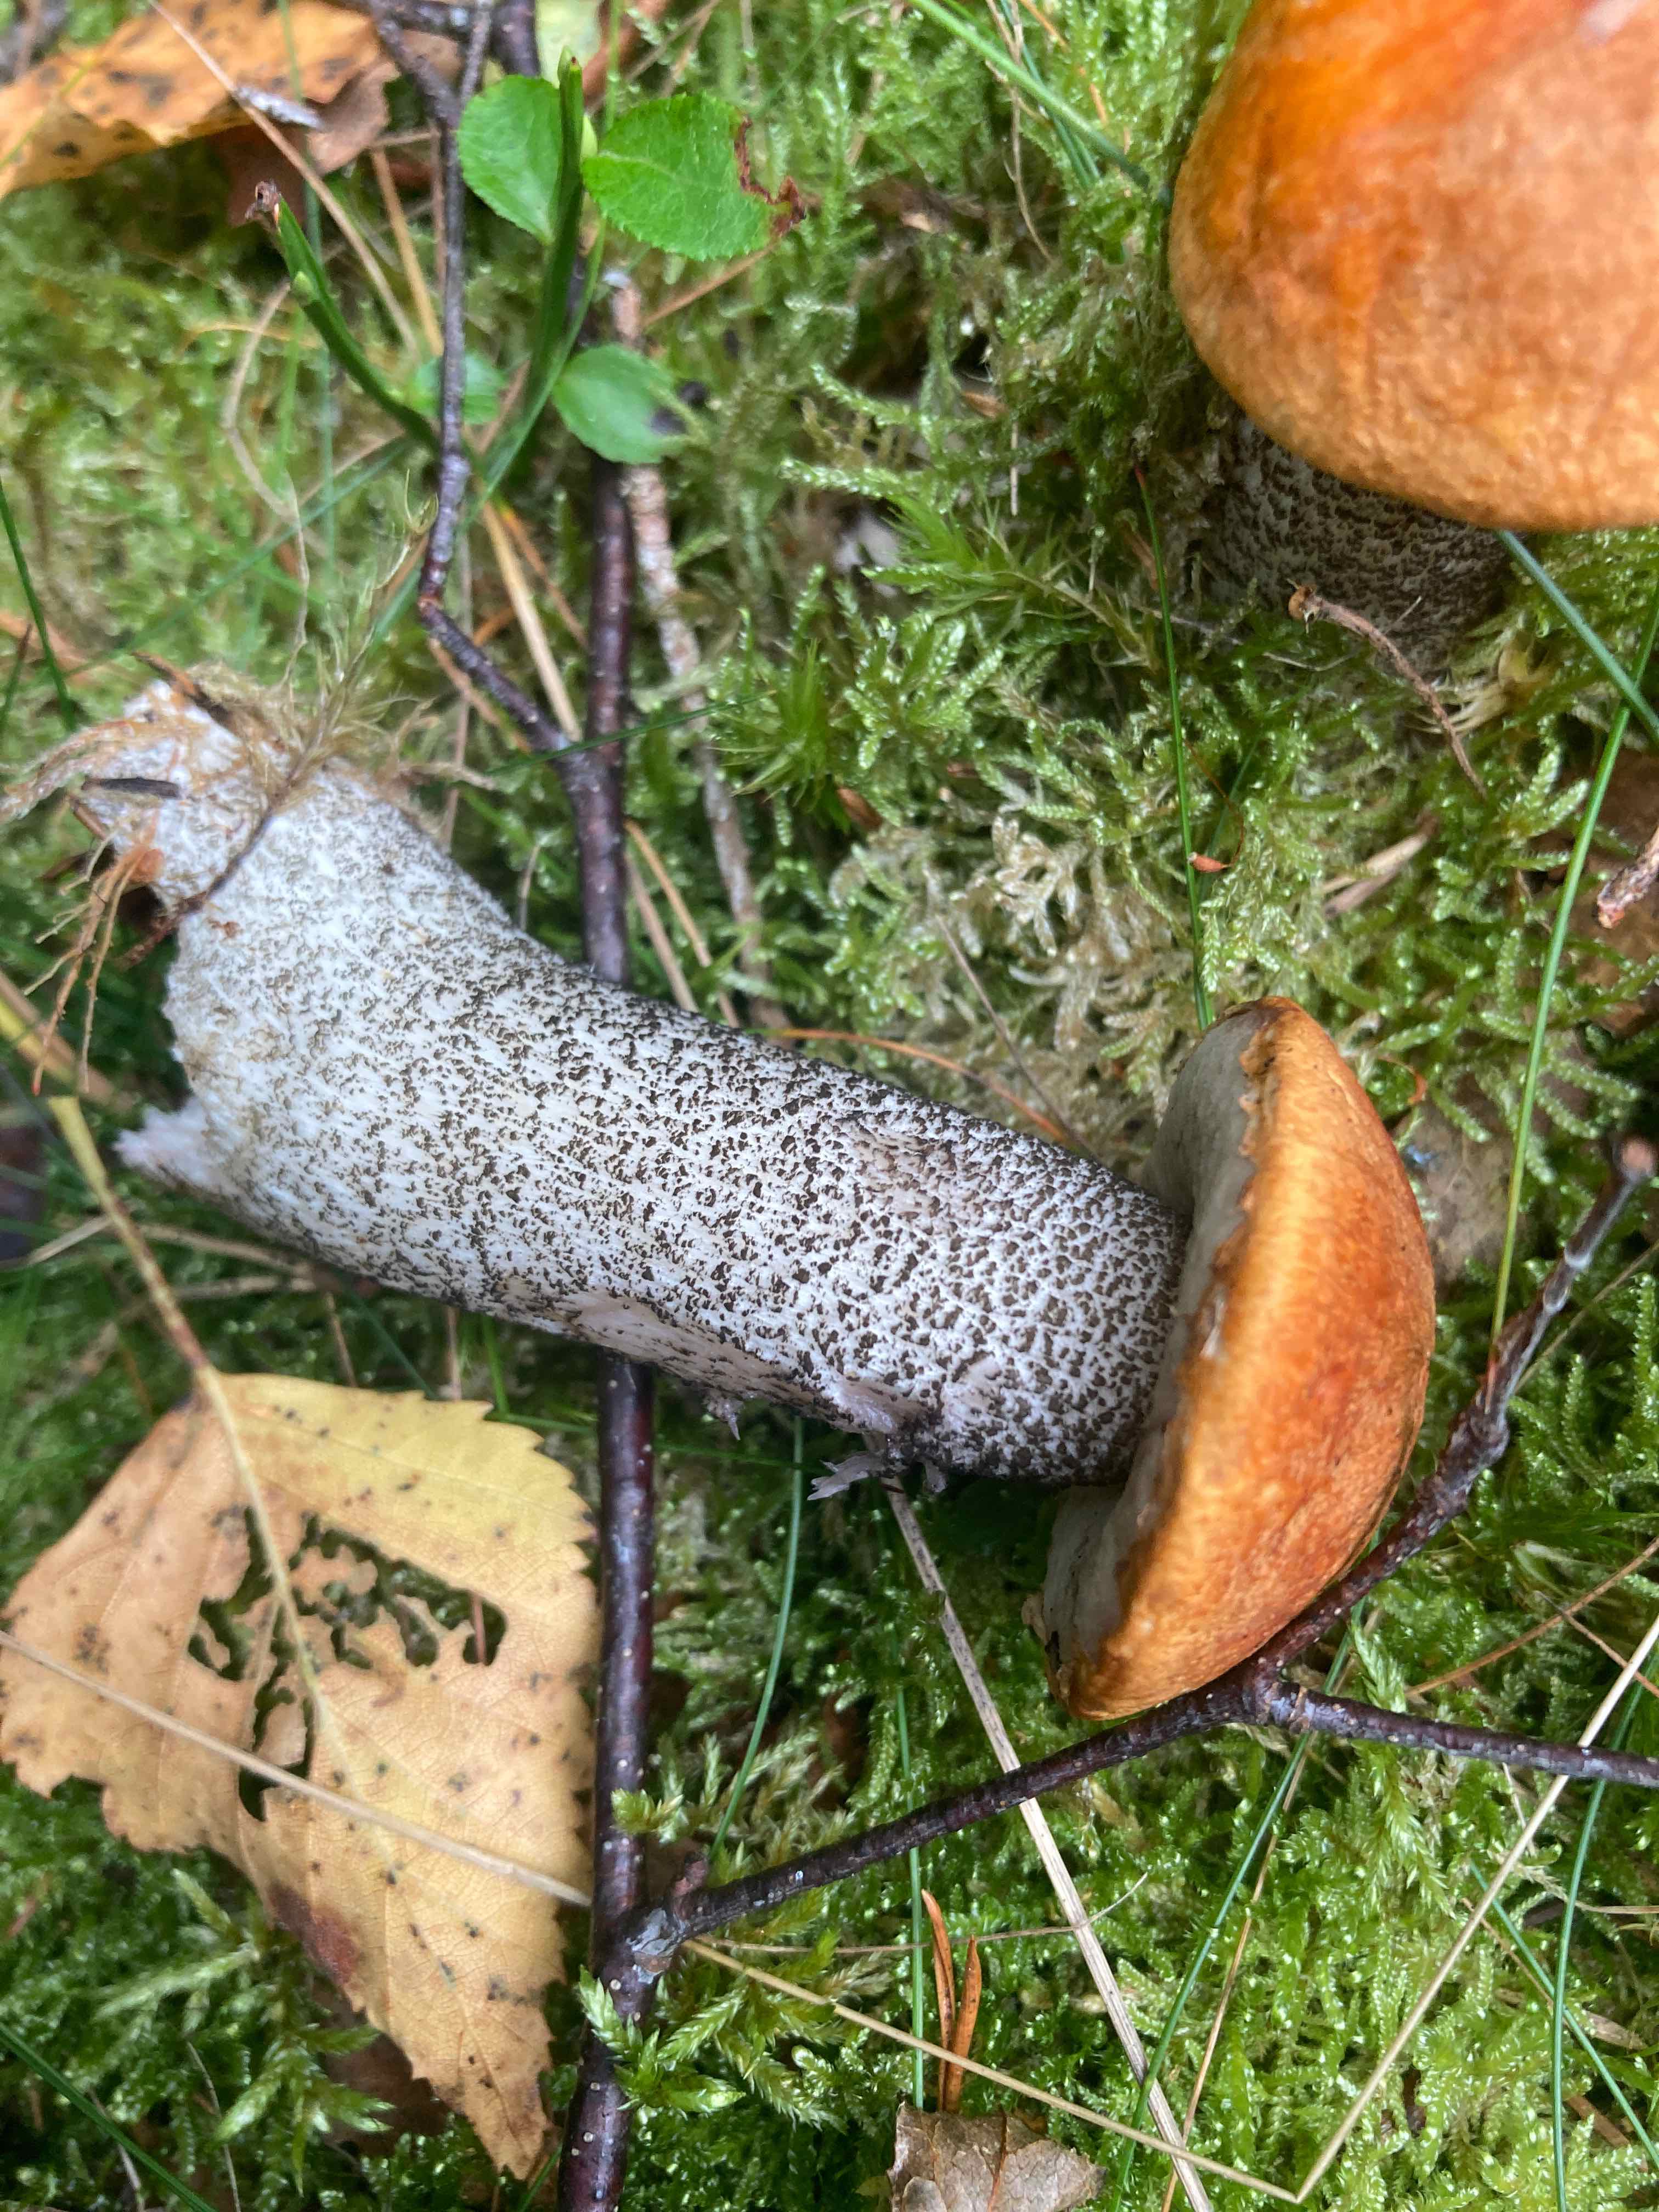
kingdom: Fungi
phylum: Basidiomycota
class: Agaricomycetes
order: Boletales
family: Boletaceae
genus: Leccinum
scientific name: Leccinum versipelle
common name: orange skælrørhat
